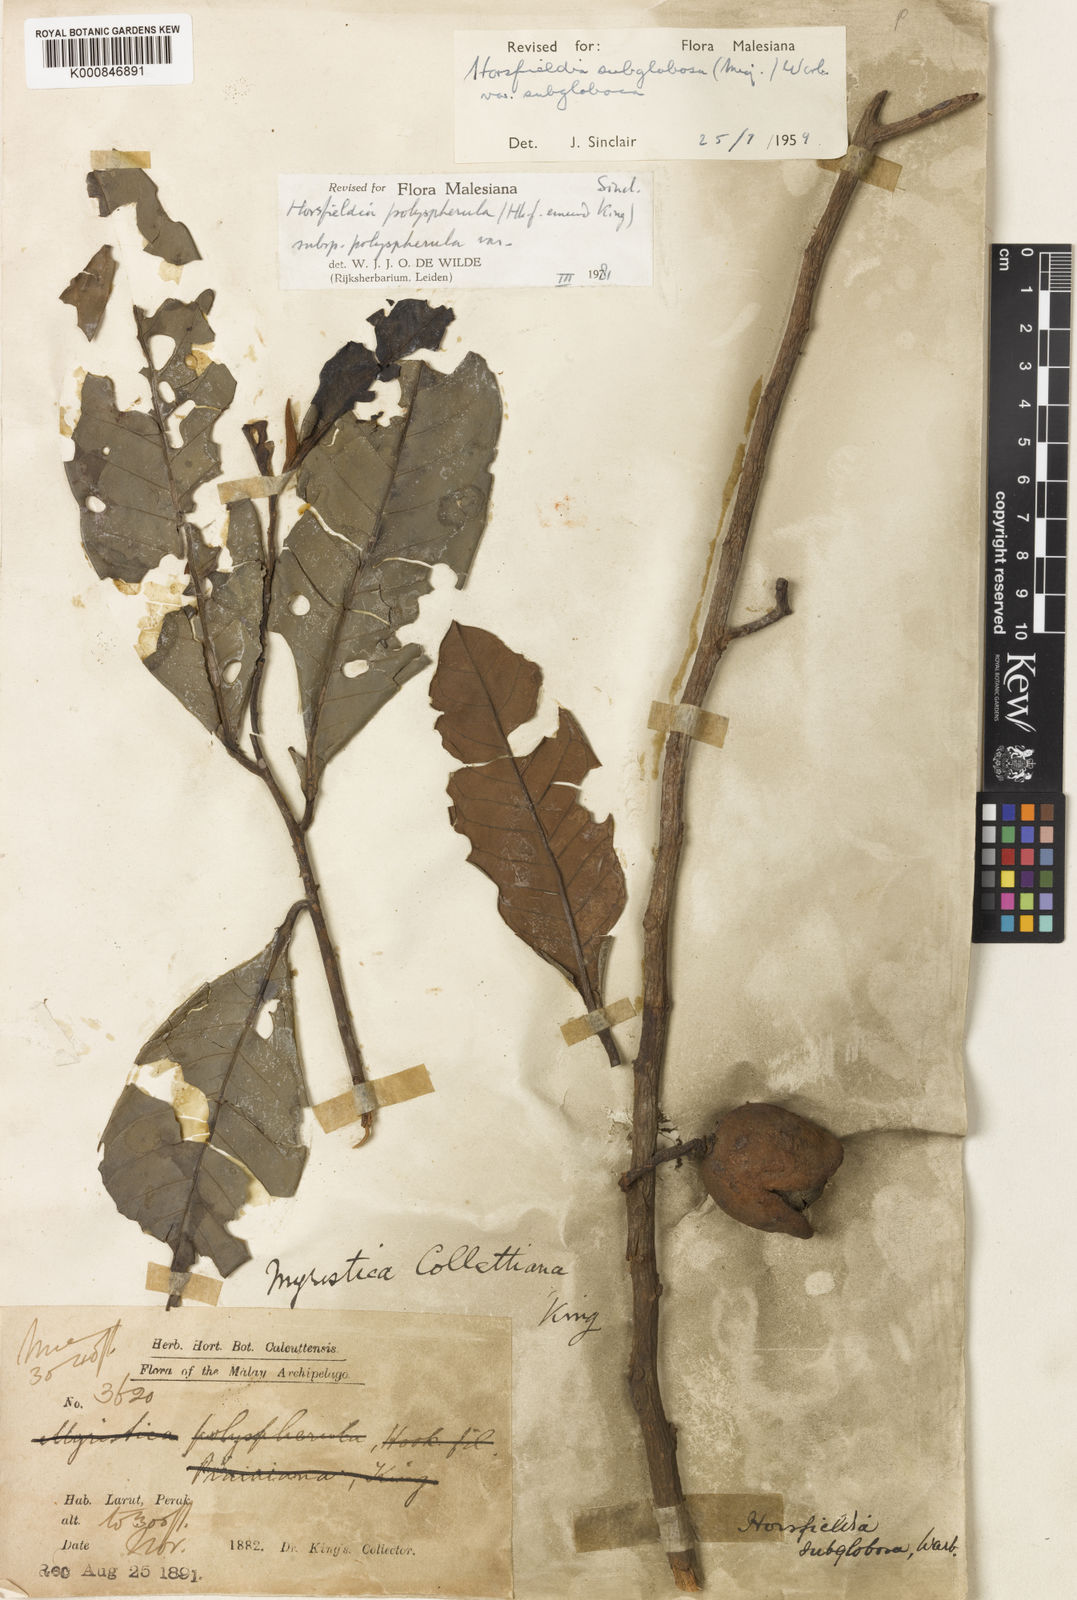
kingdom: Plantae
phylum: Tracheophyta
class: Magnoliopsida
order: Magnoliales
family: Myristicaceae
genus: Horsfieldia
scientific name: Horsfieldia polyspherula
